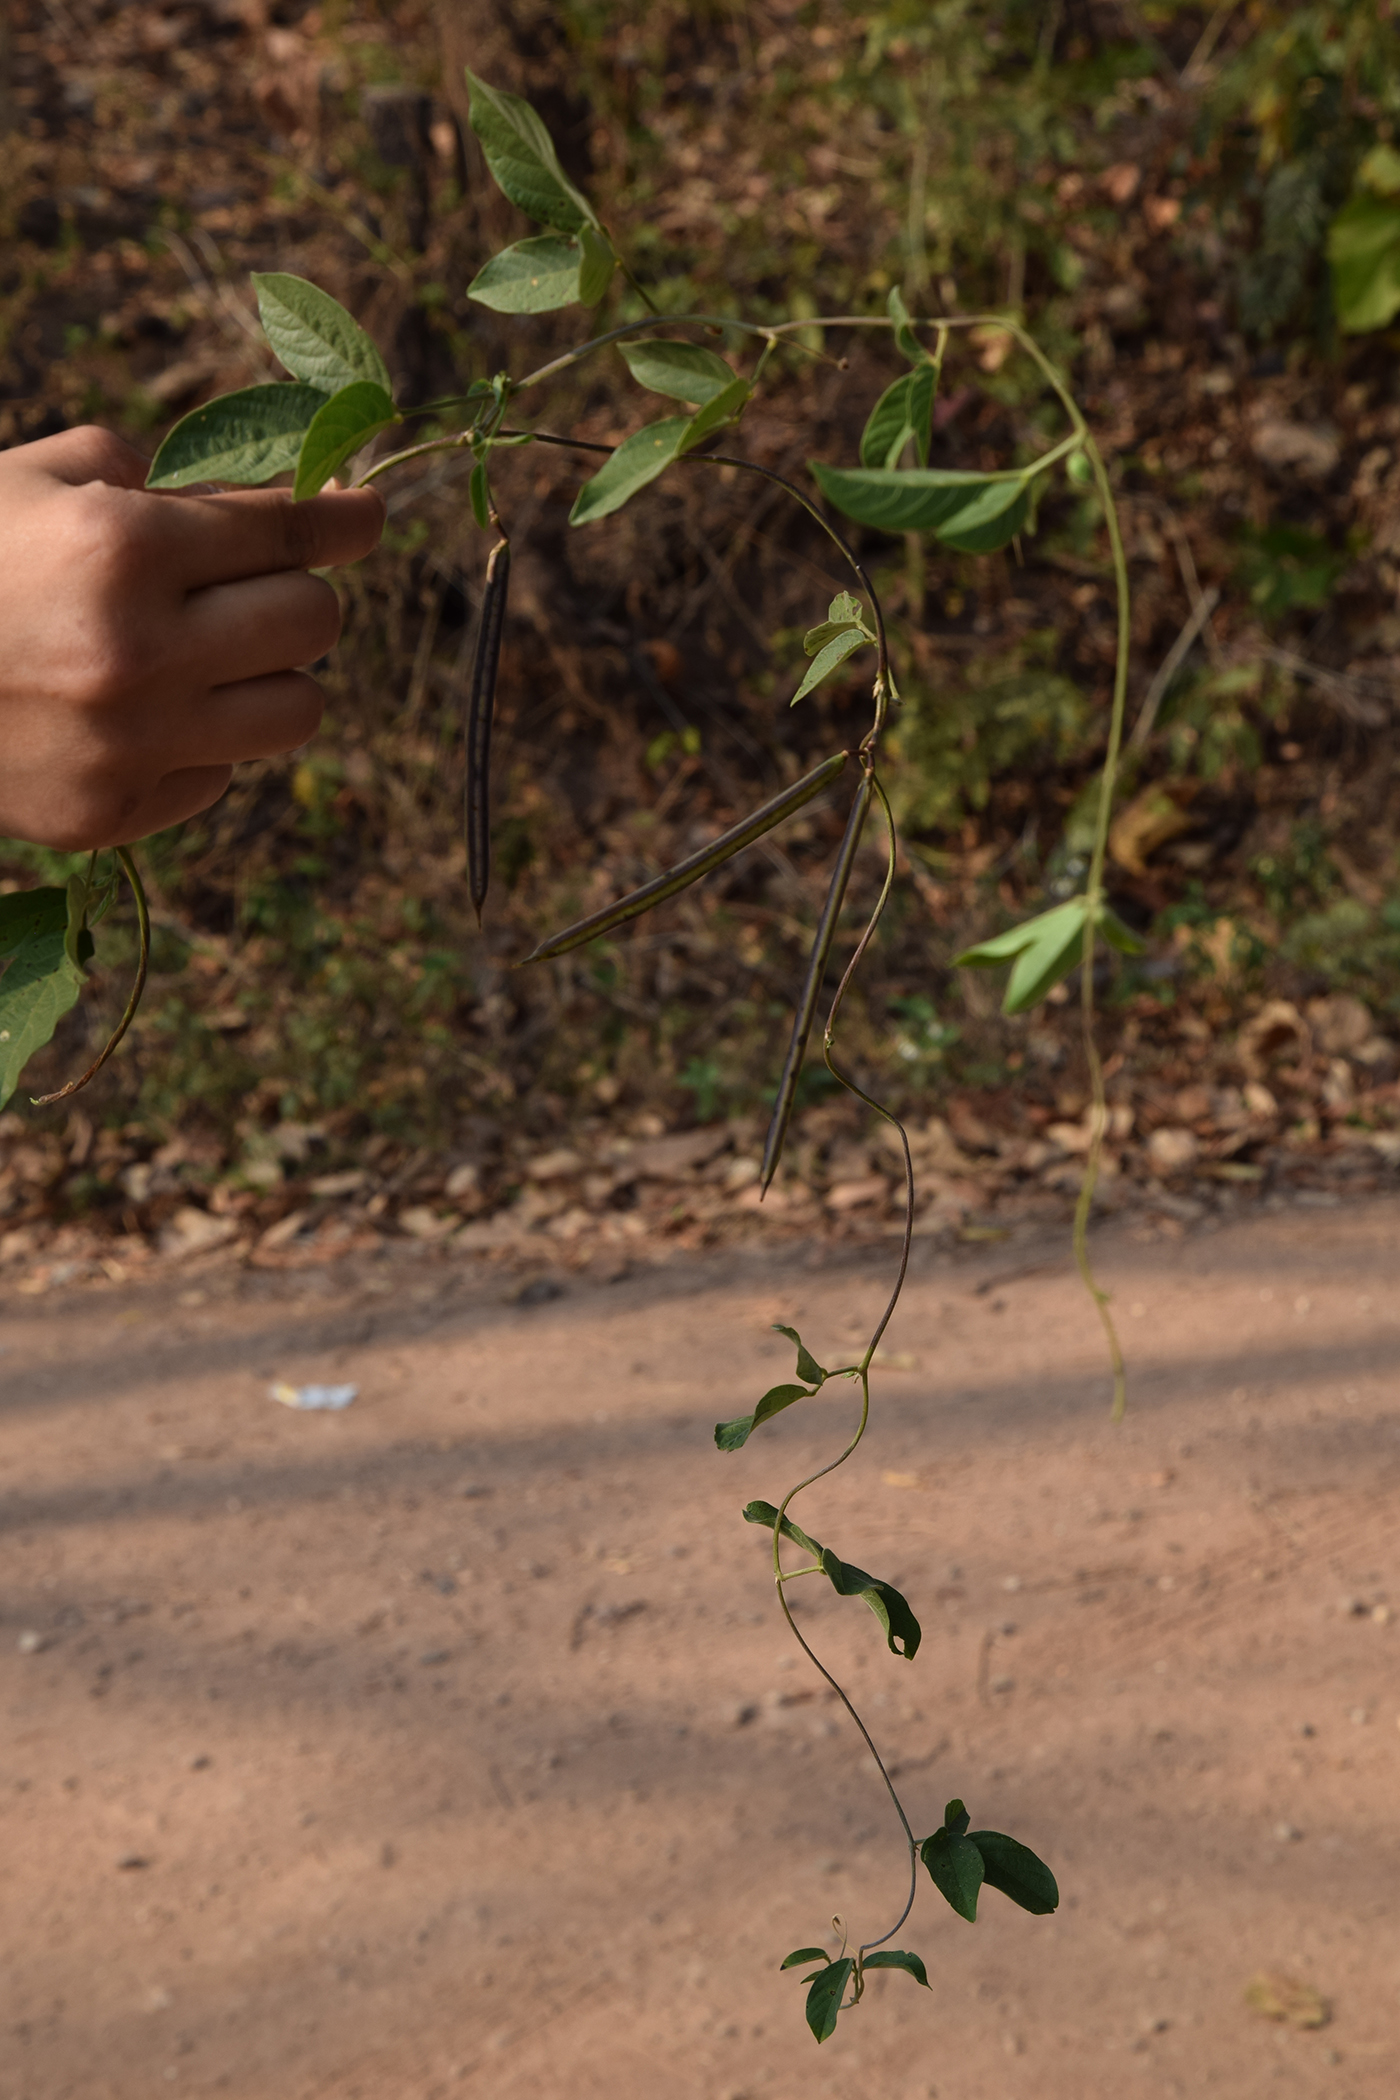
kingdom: Plantae
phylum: Tracheophyta
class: Magnoliopsida
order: Fabales
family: Fabaceae
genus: Centrosema
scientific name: Centrosema pubescens
